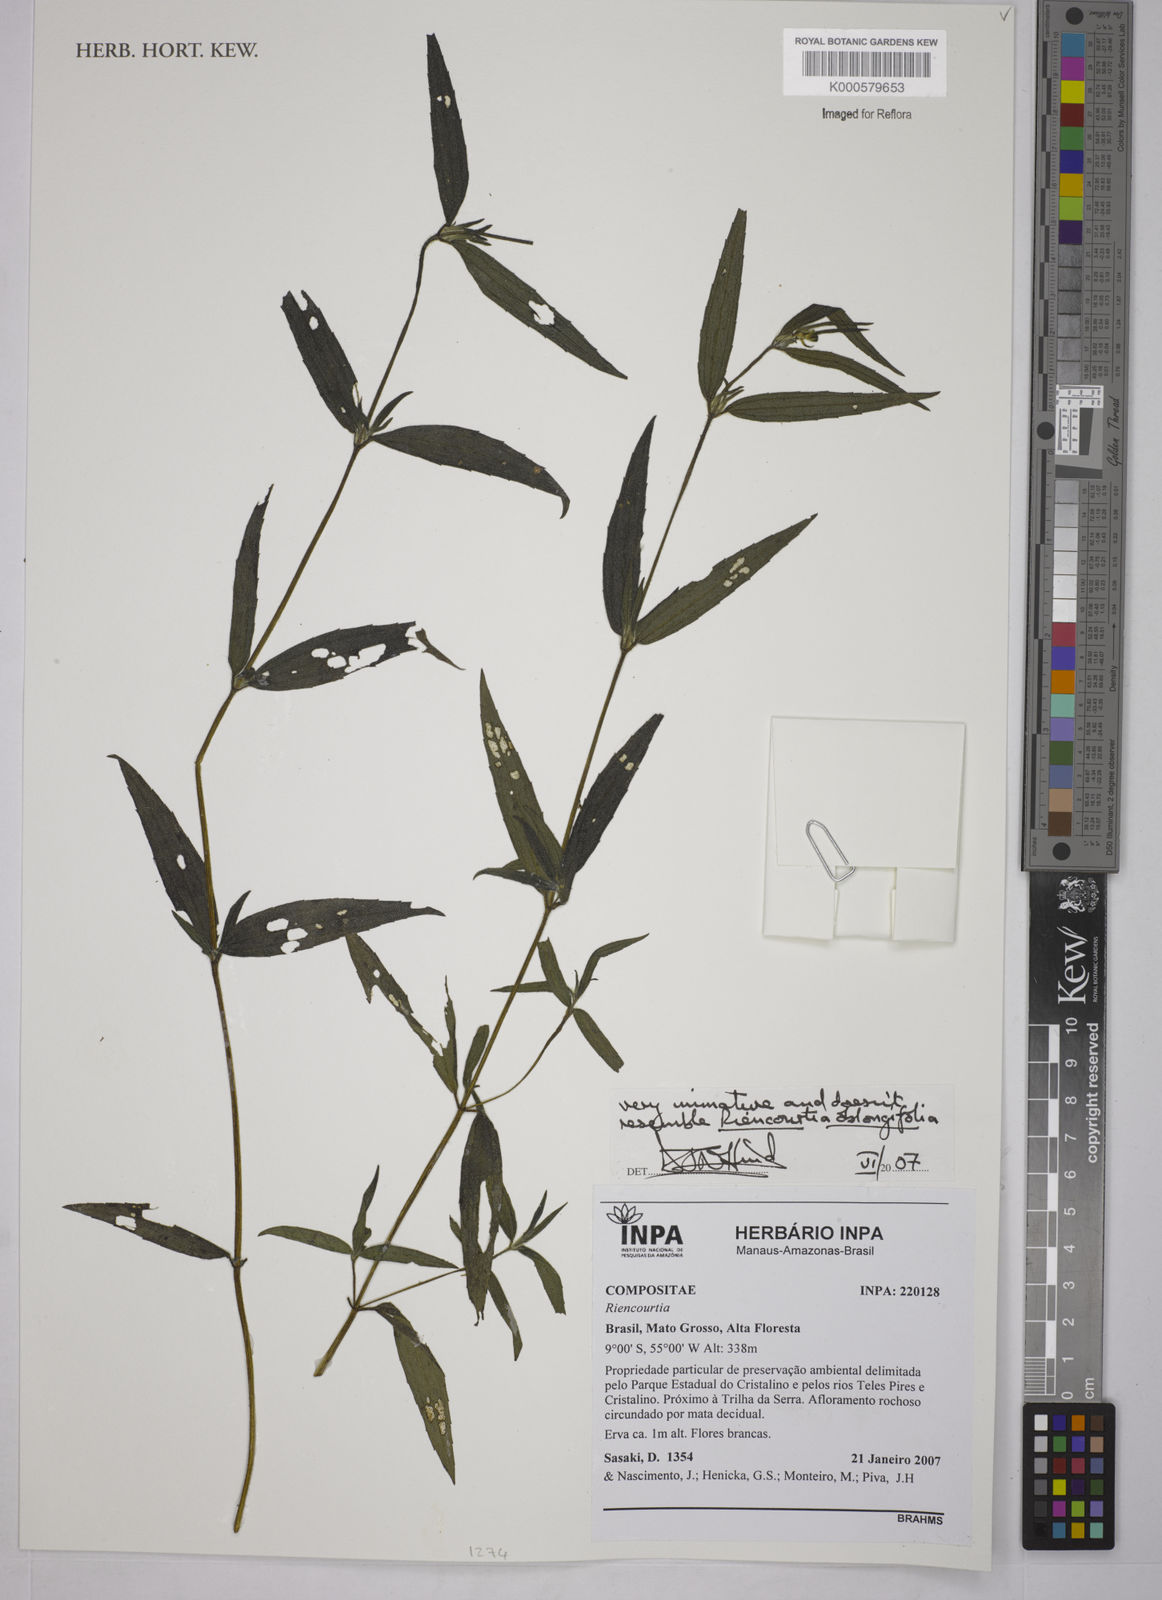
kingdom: Plantae
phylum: Tracheophyta
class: Magnoliopsida
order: Asterales
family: Asteraceae
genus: Riencourtia
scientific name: Riencourtia oblongifolia
